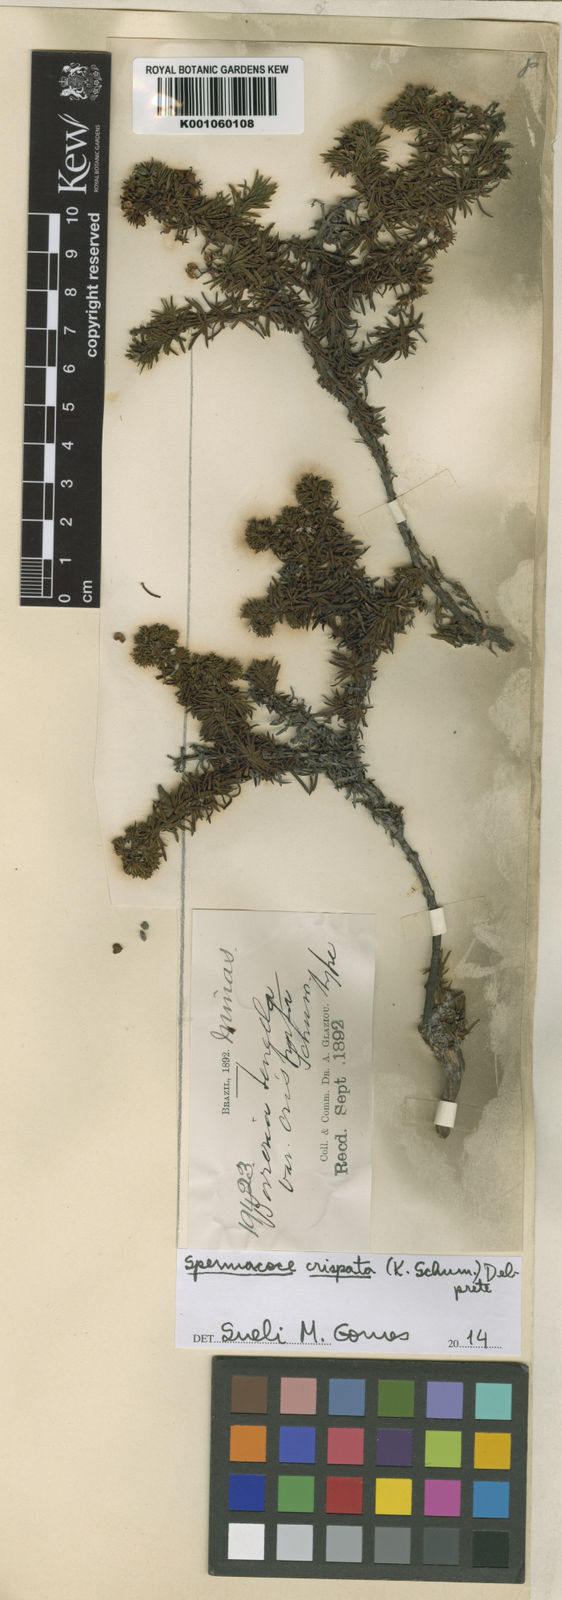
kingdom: Plantae
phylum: Tracheophyta
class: Magnoliopsida
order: Gentianales
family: Rubiaceae
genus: Spermacoce
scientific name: Spermacoce crispata
